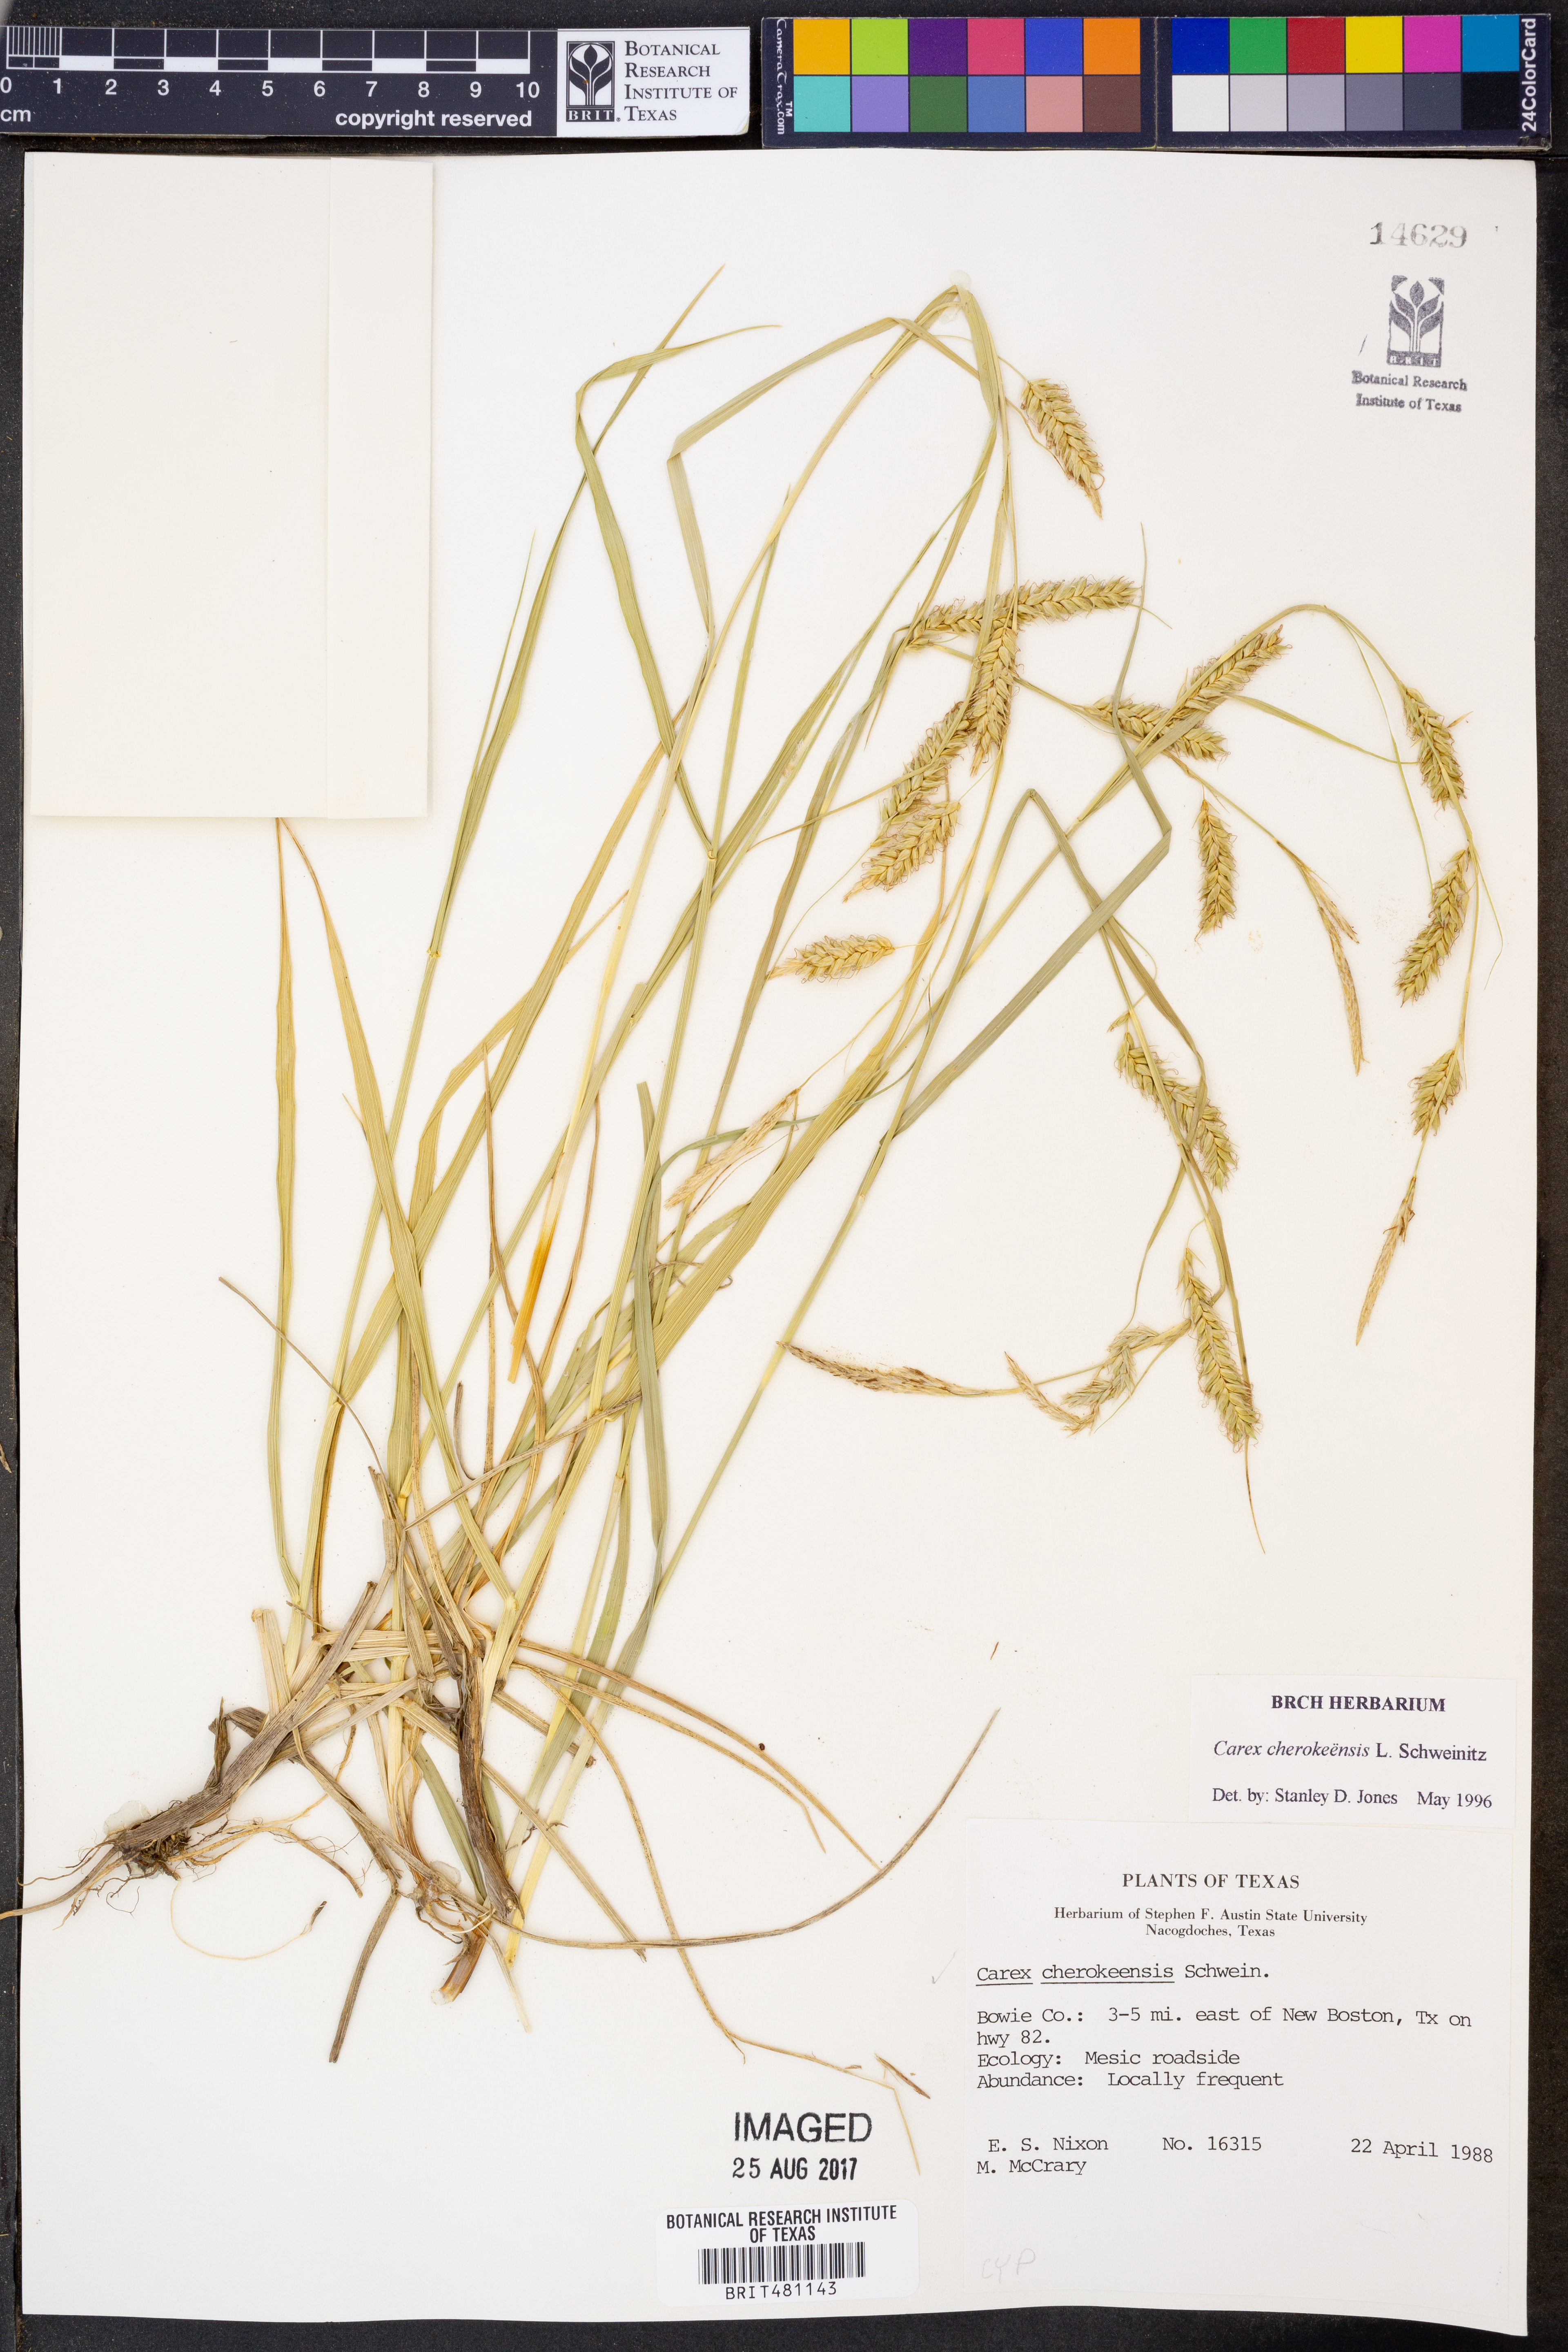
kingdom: Plantae
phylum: Tracheophyta
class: Liliopsida
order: Poales
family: Cyperaceae
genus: Carex
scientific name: Carex cherokeensis
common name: Cherokee sedge
